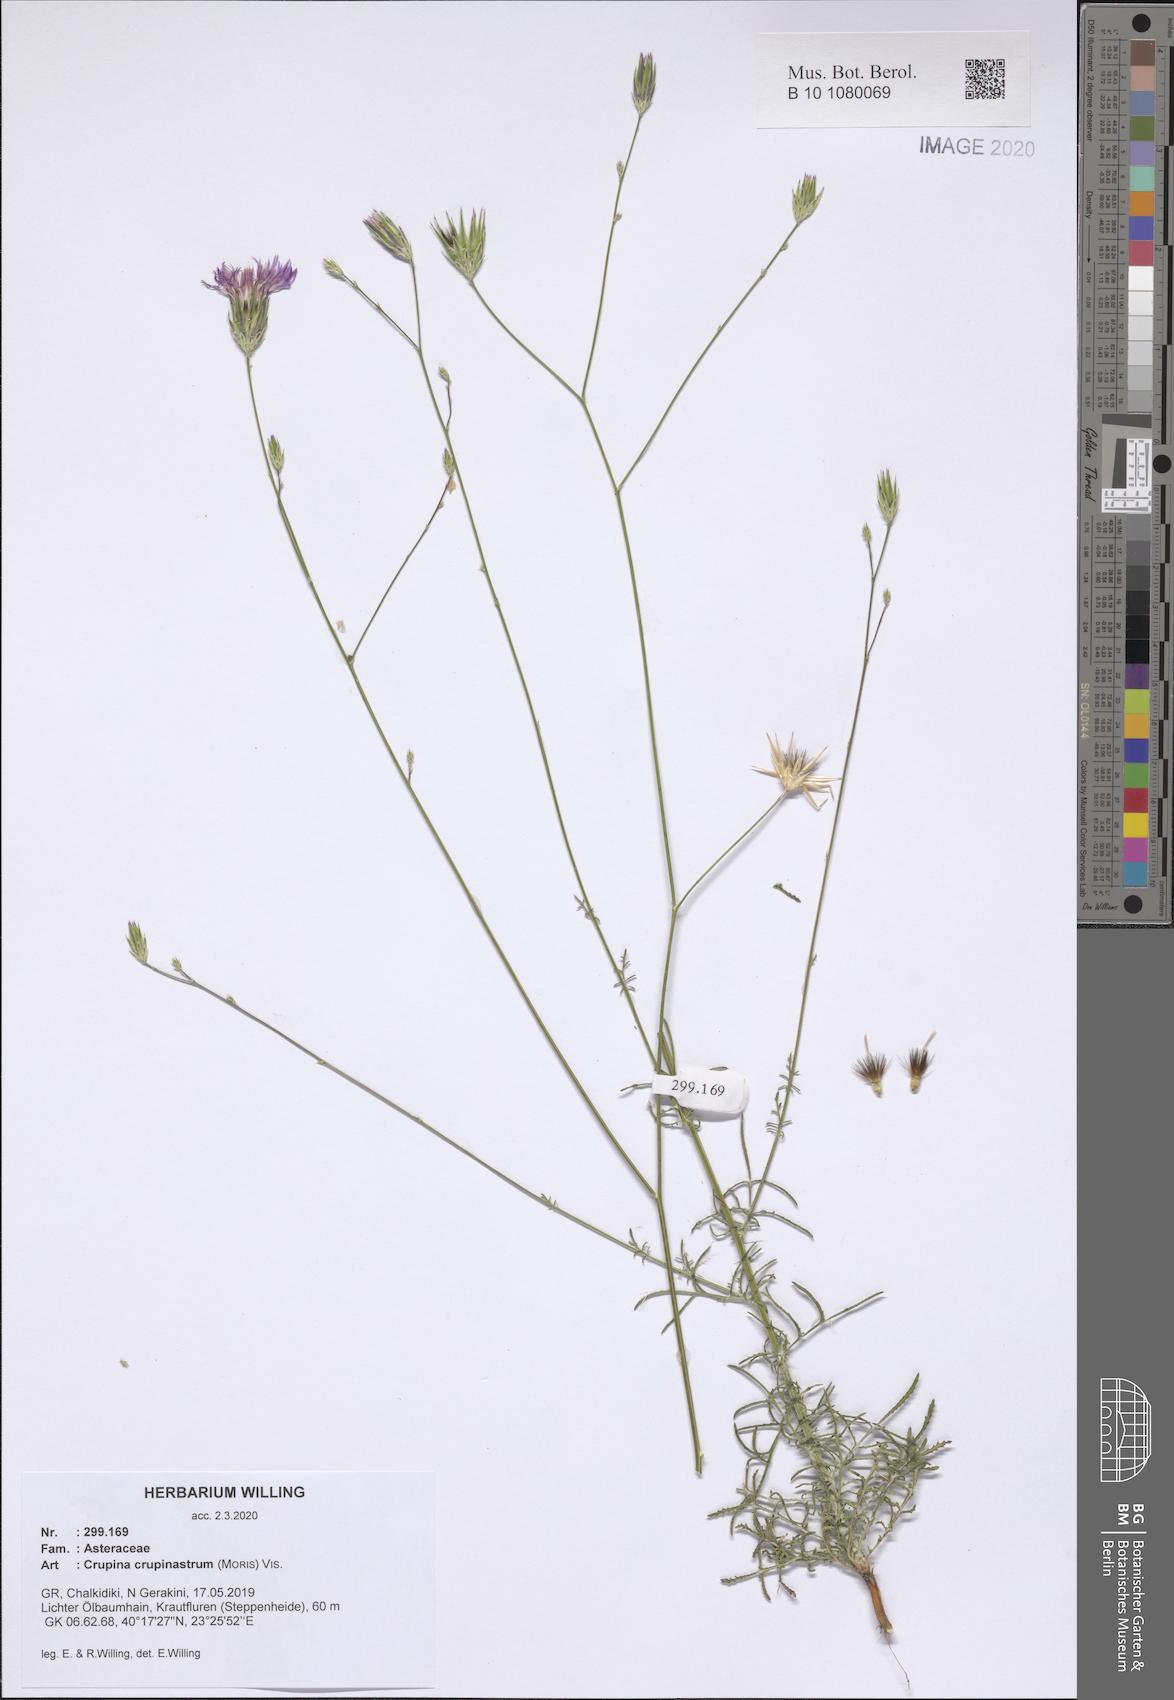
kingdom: Plantae
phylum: Tracheophyta
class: Magnoliopsida
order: Asterales
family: Asteraceae
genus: Crupina
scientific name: Crupina crupinastrum
